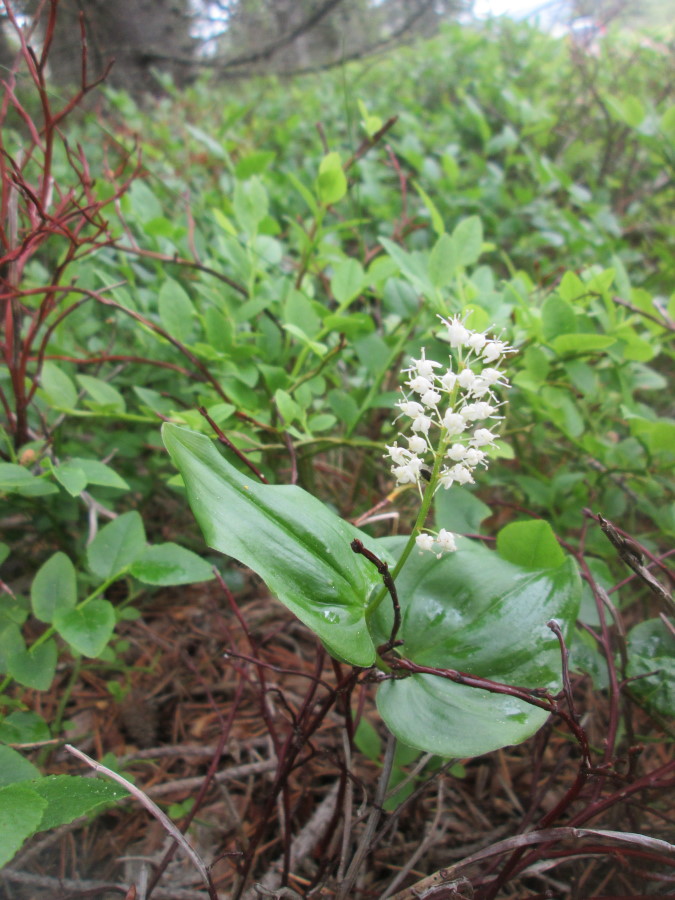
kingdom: Plantae
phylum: Tracheophyta
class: Liliopsida
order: Asparagales
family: Asparagaceae
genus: Maianthemum
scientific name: Maianthemum bifolium
